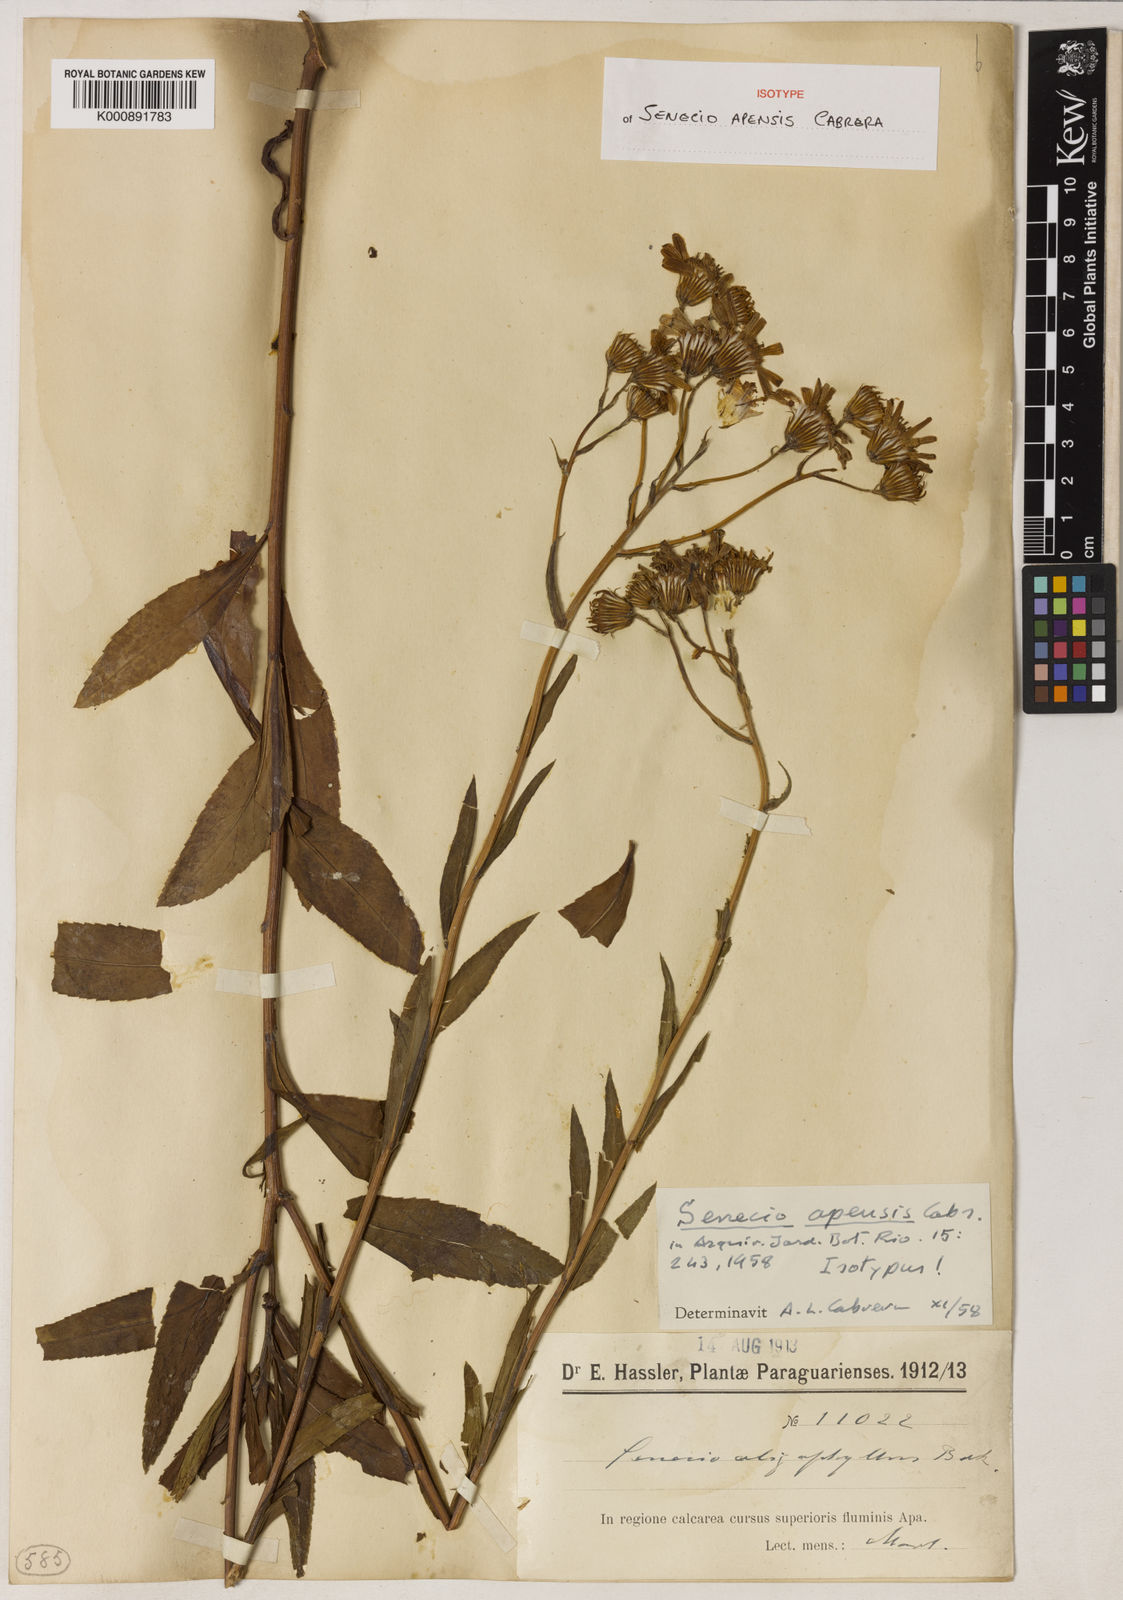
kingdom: Plantae
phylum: Tracheophyta
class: Magnoliopsida
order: Asterales
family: Asteraceae
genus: Senecio
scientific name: Senecio apensis
